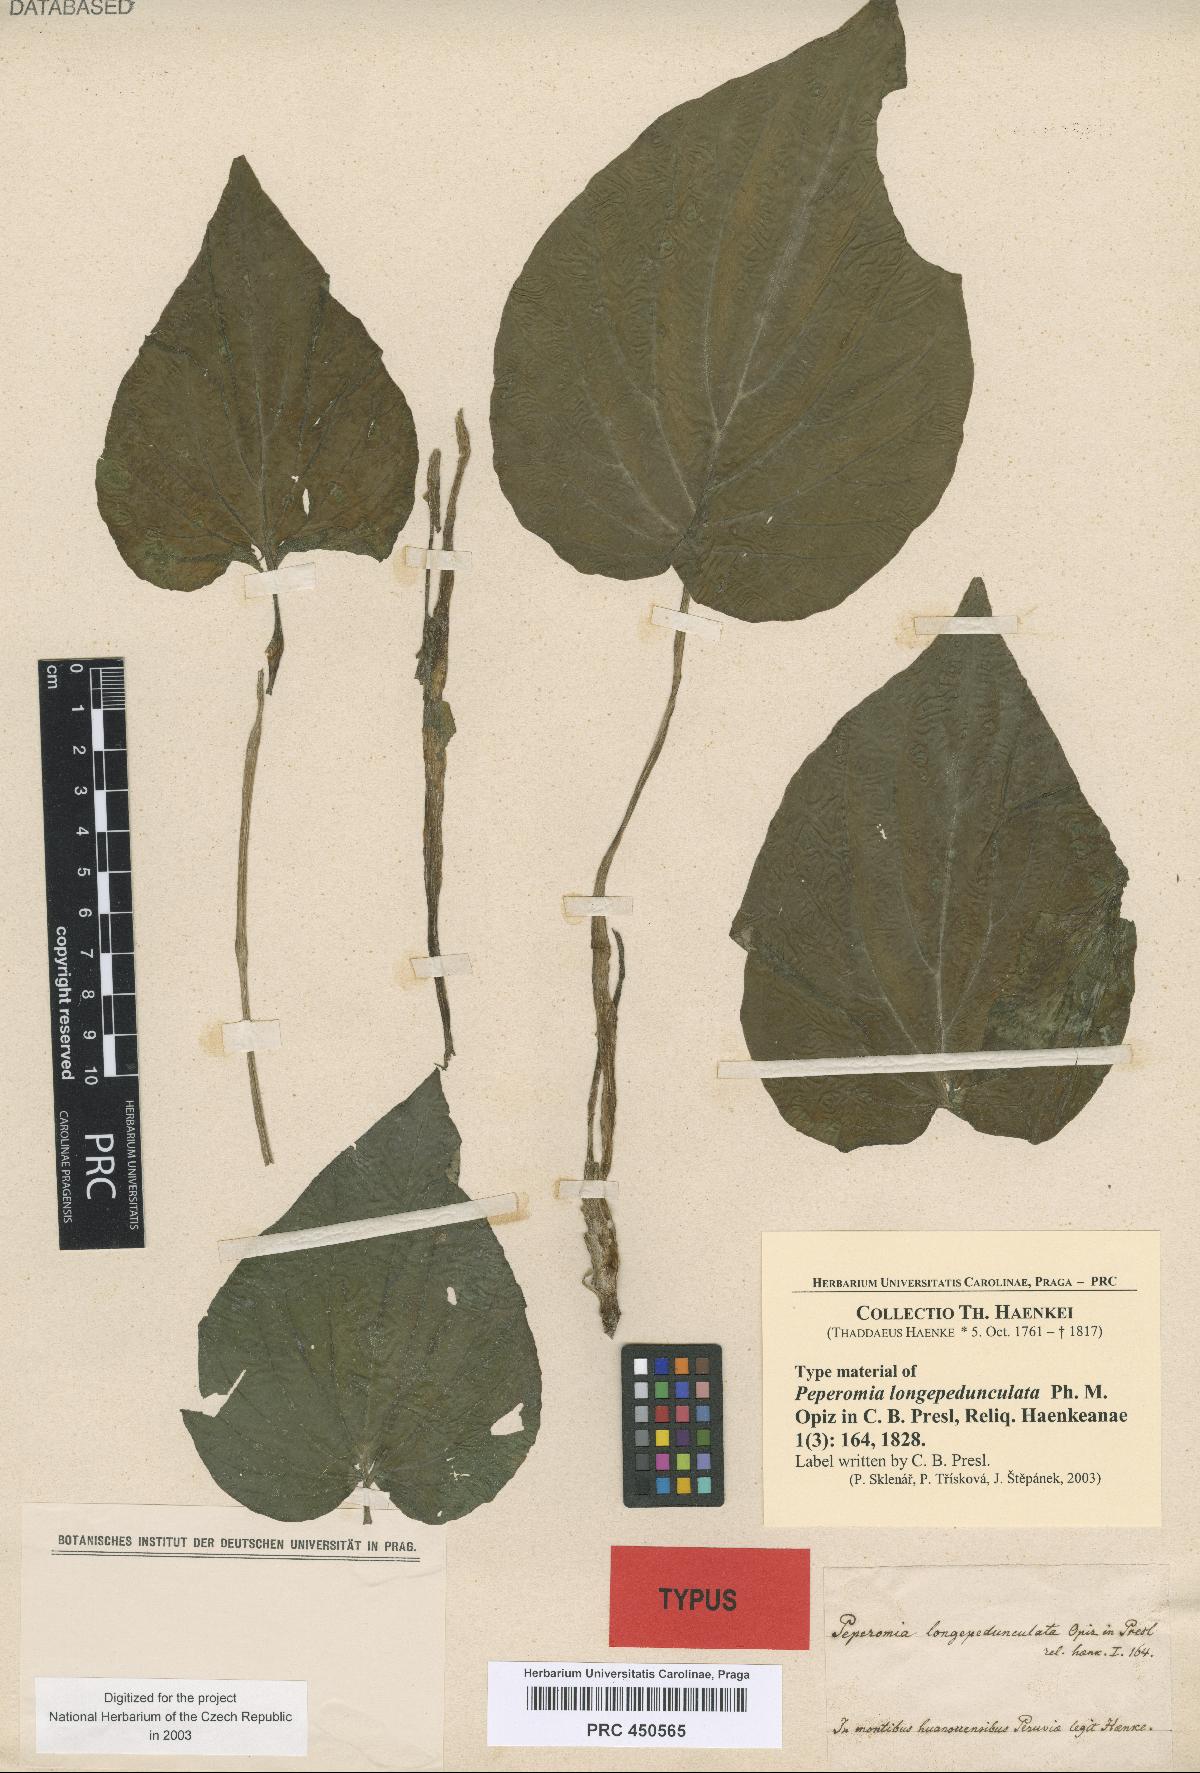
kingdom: Plantae
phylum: Tracheophyta
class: Magnoliopsida
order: Piperales
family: Piperaceae
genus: Peperomia
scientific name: Peperomia longepedunculata
